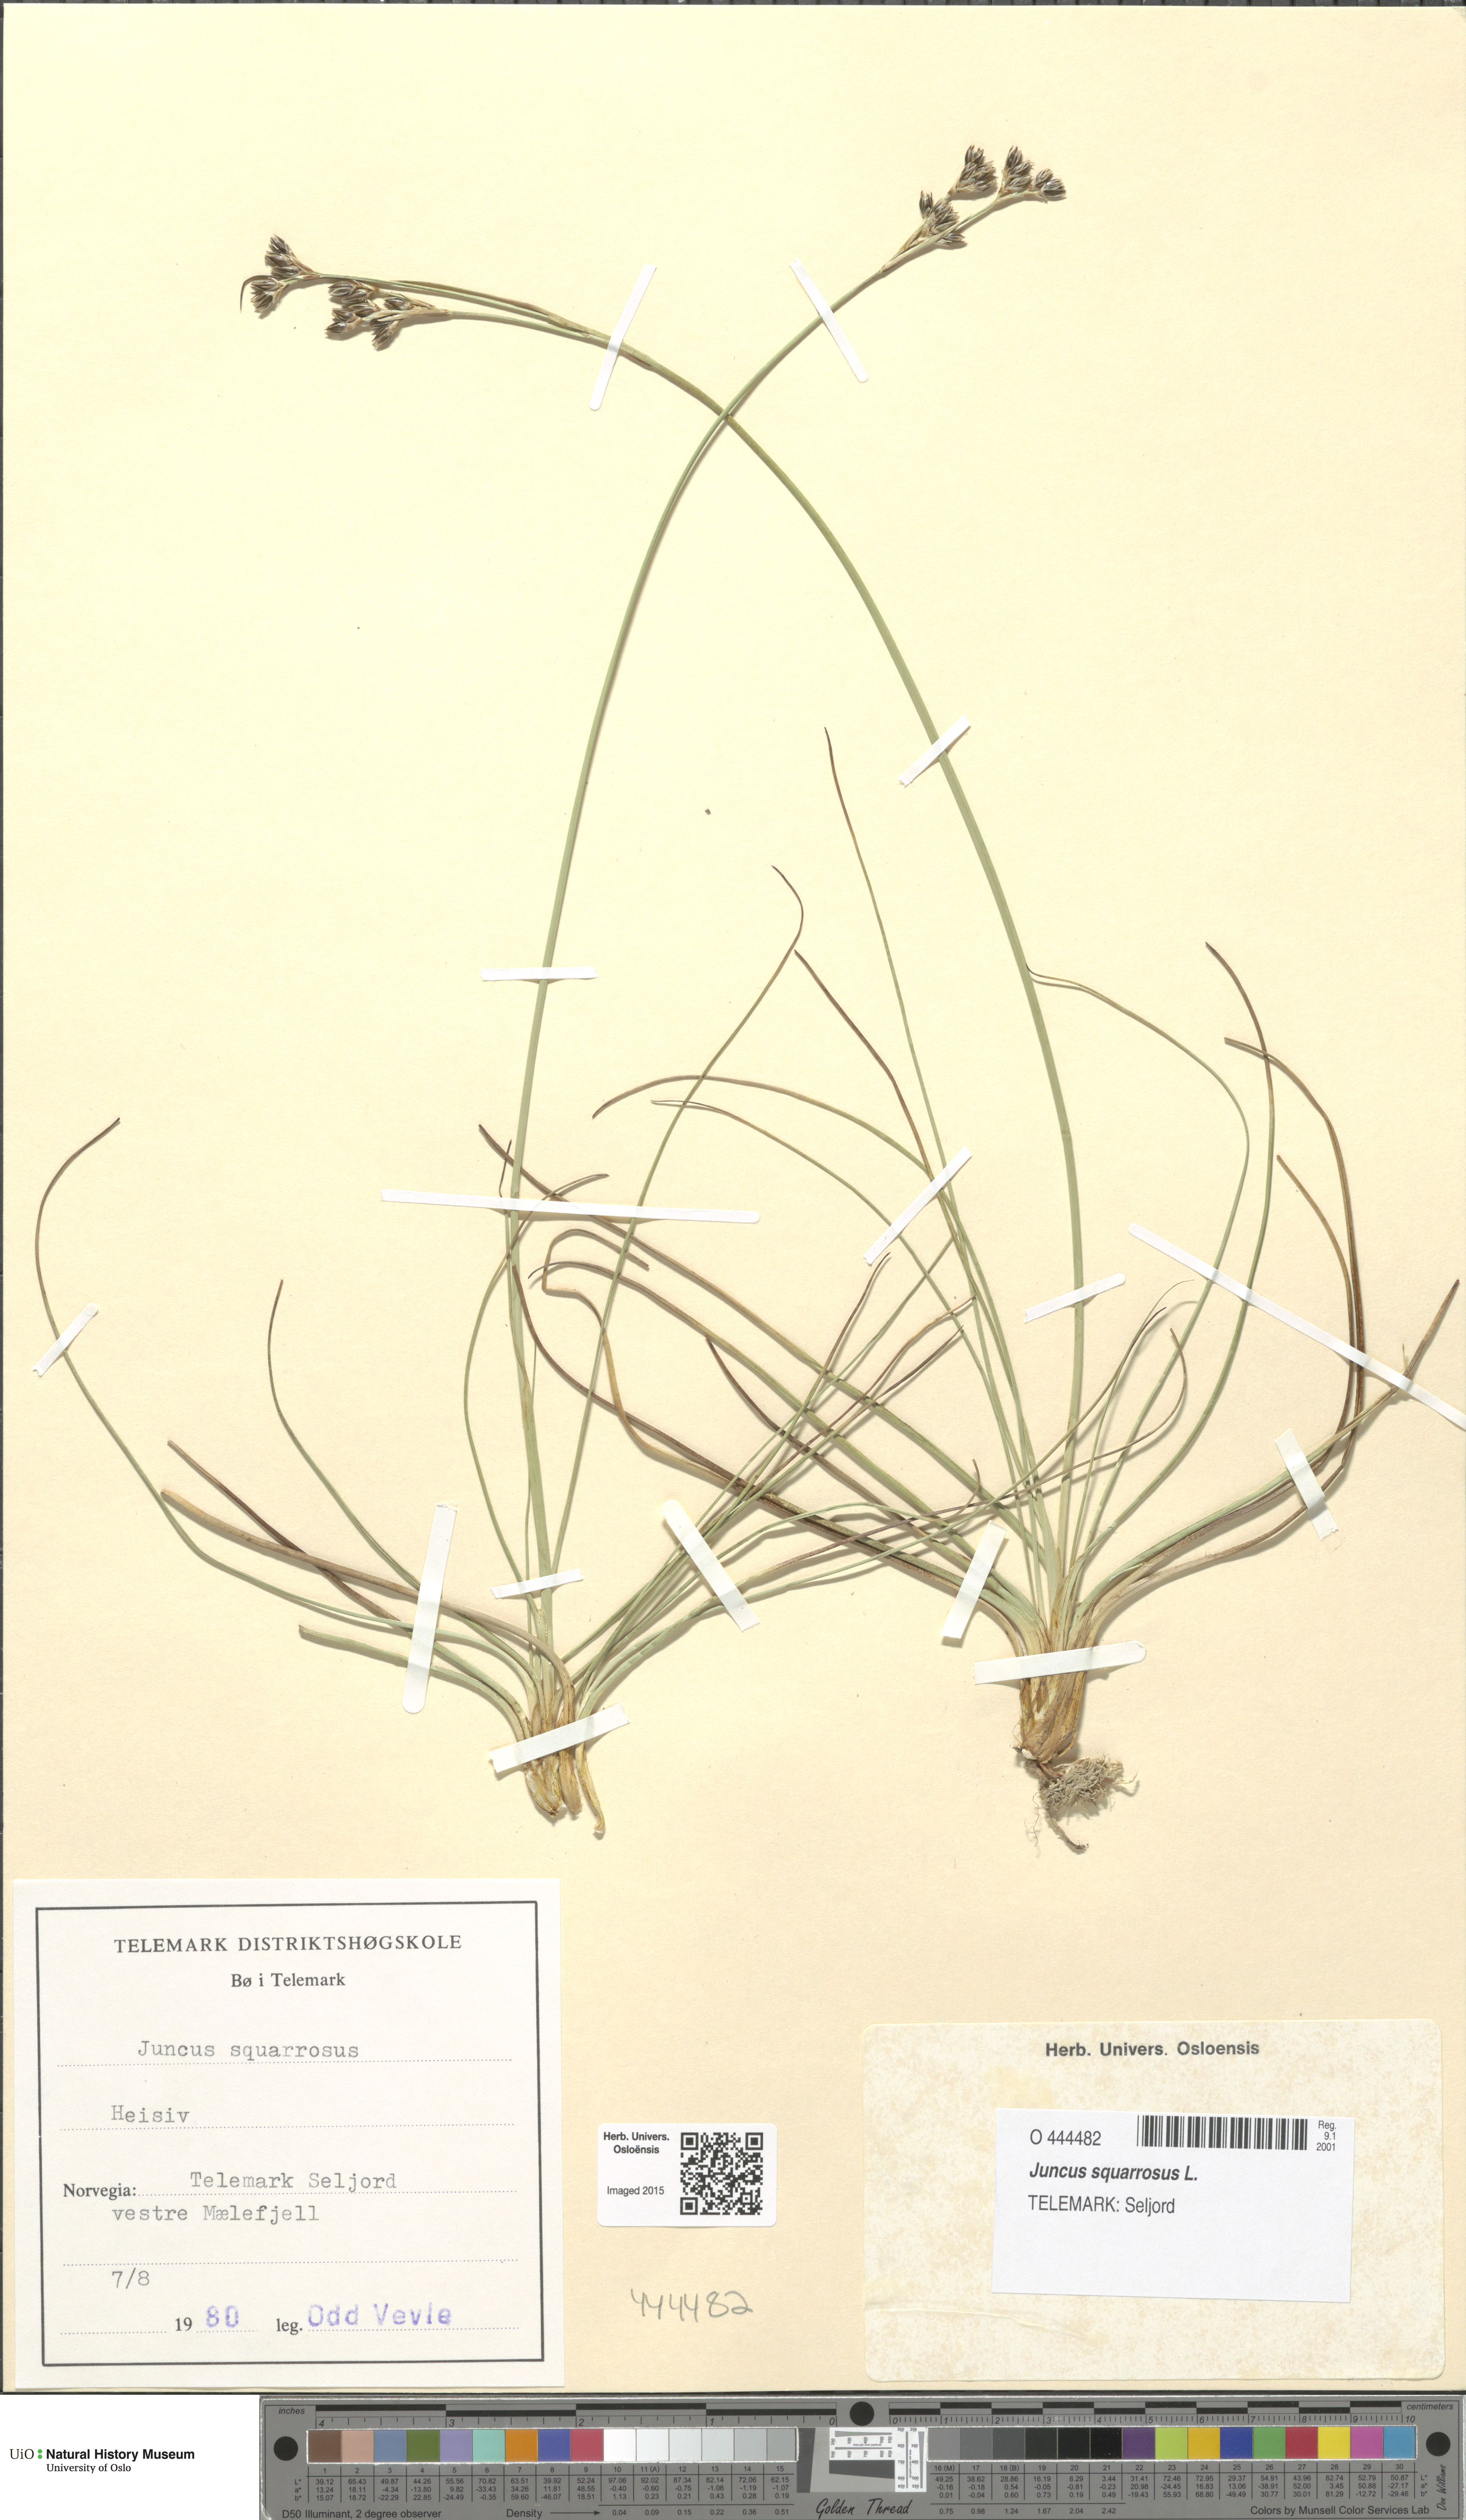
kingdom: Plantae
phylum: Tracheophyta
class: Liliopsida
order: Poales
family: Juncaceae
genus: Juncus
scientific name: Juncus squarrosus
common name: Heath rush
